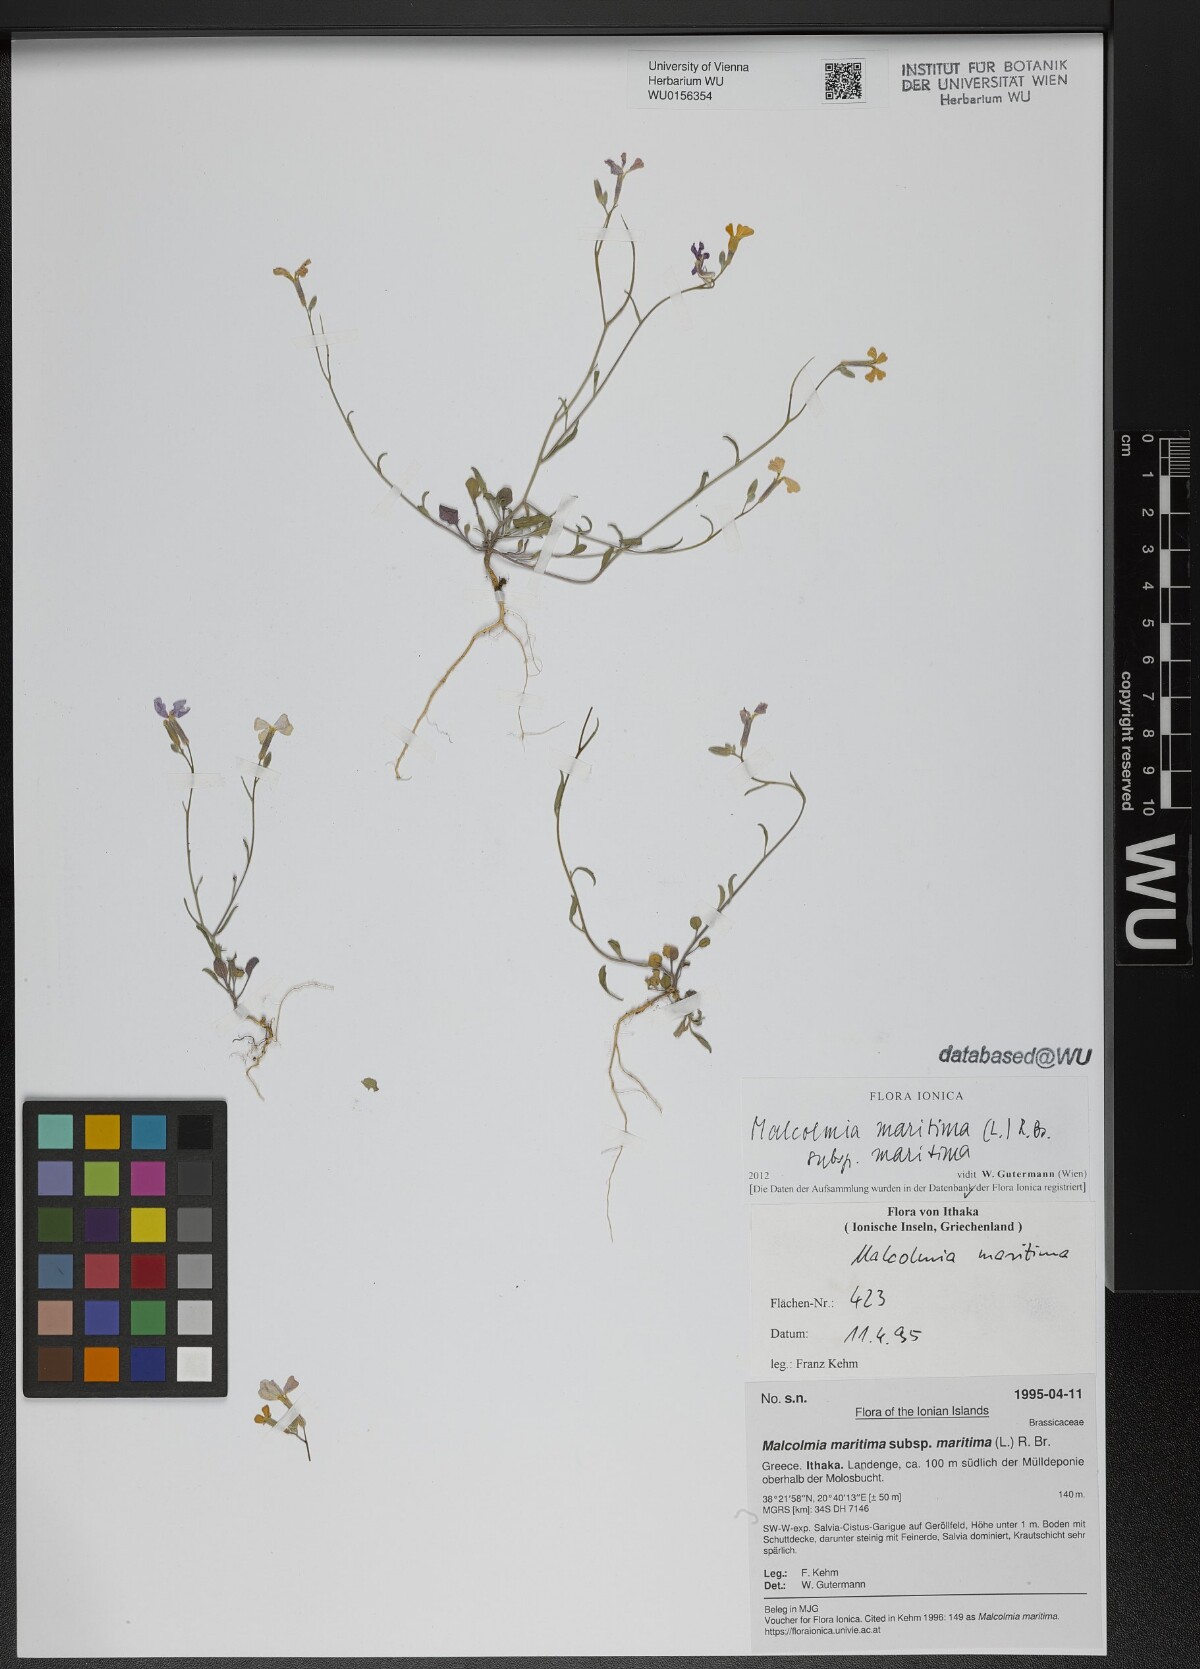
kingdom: Plantae
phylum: Tracheophyta
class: Magnoliopsida
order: Brassicales
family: Brassicaceae
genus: Malcolmia
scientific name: Malcolmia maritima
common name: Virginia stock
